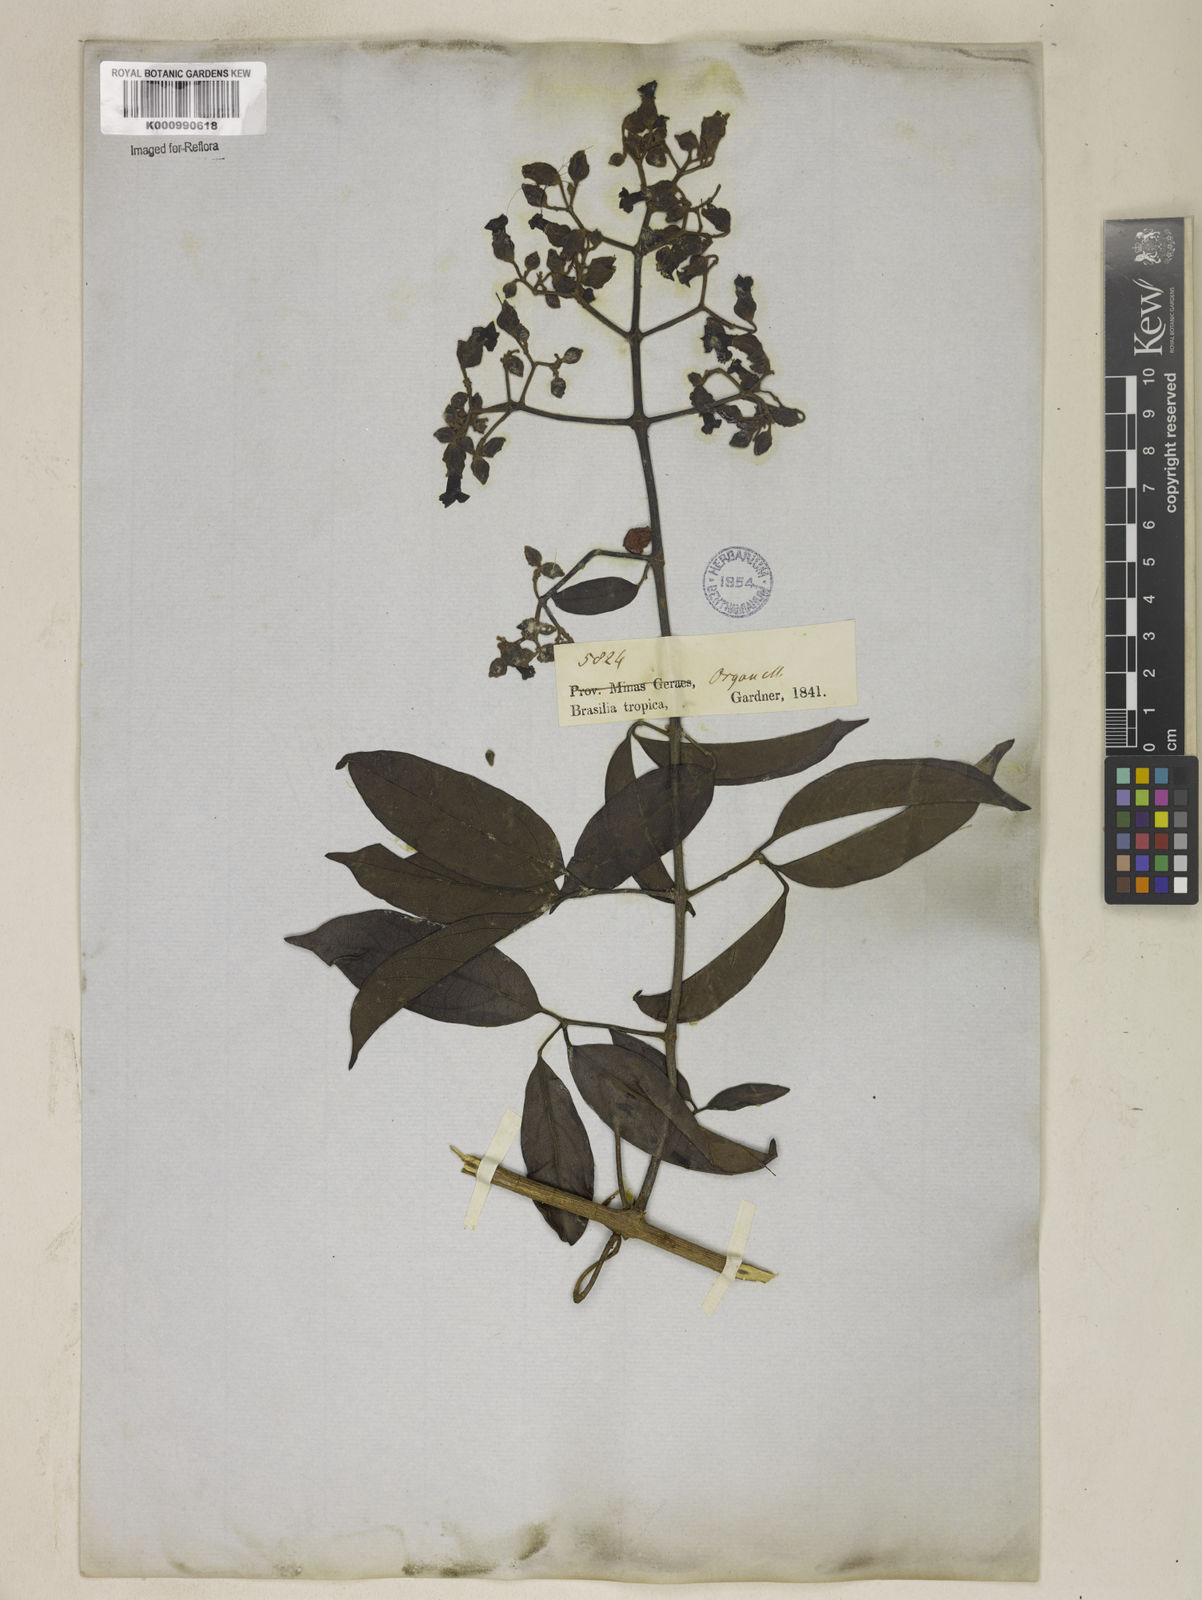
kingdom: Plantae
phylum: Tracheophyta
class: Magnoliopsida
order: Lamiales
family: Bignoniaceae
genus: Fridericia
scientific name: Fridericia speciosa
